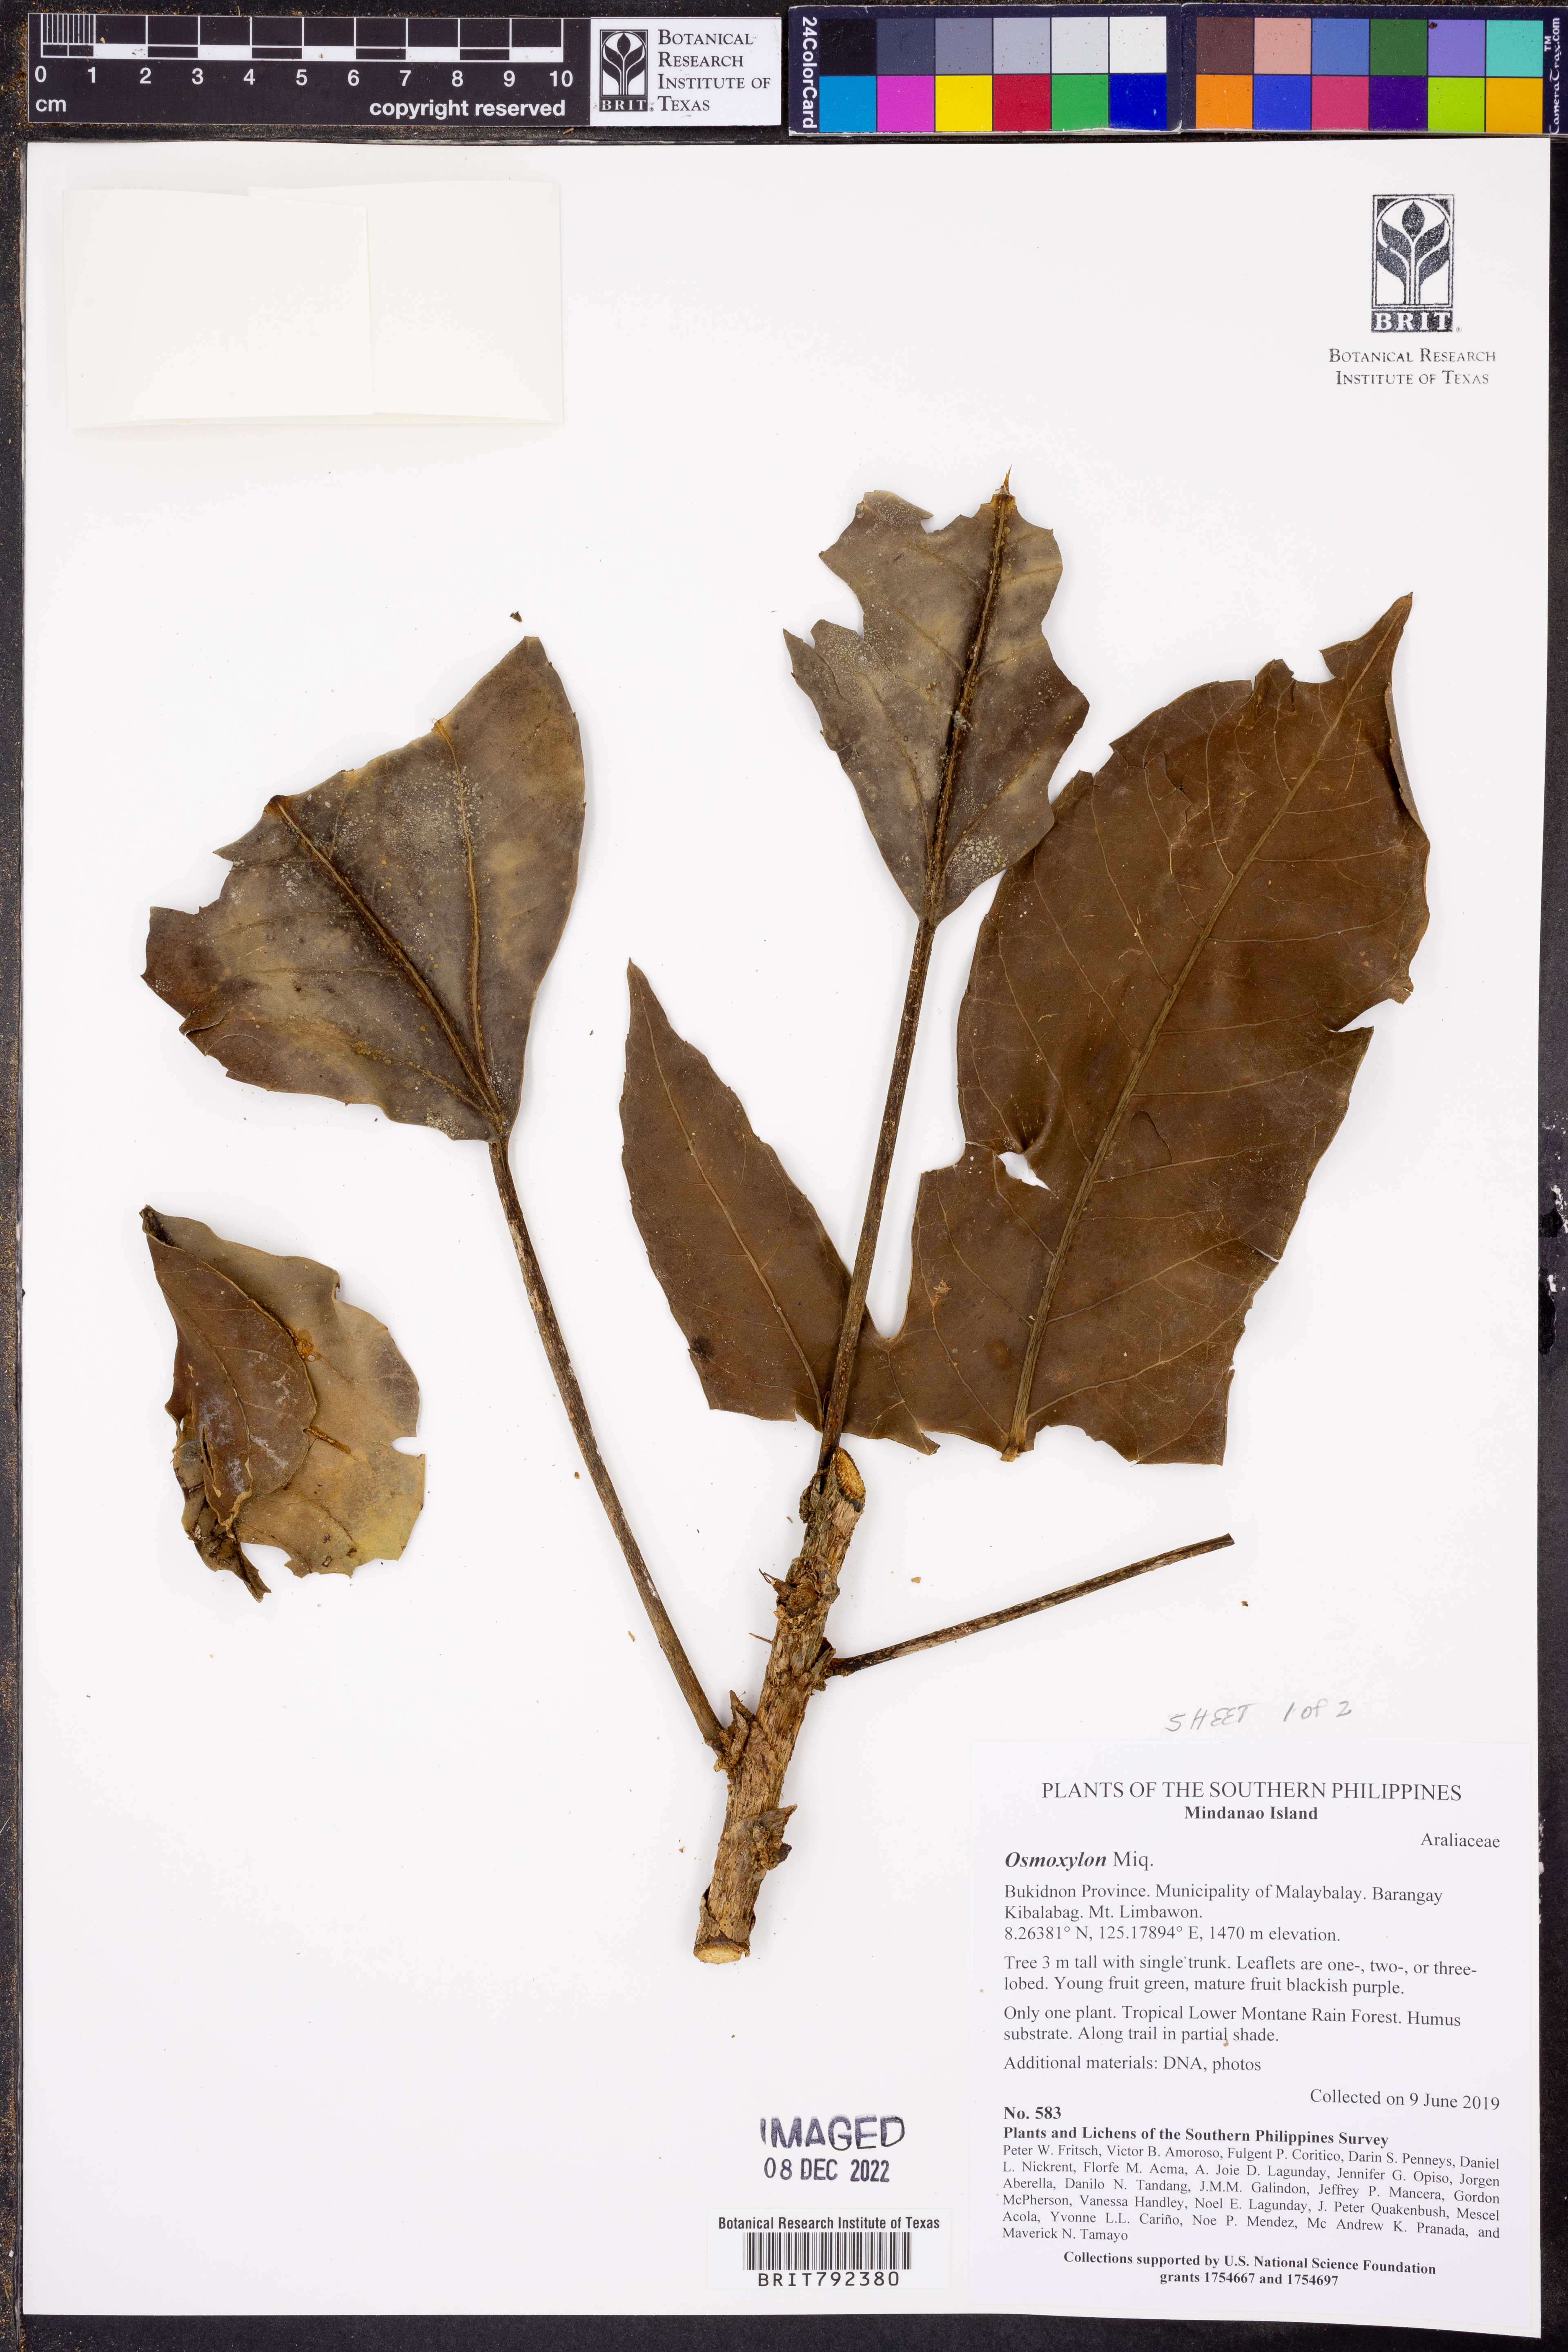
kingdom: Plantae
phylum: Tracheophyta
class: Magnoliopsida
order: Apiales
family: Araliaceae
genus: Osmoxylon
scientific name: Osmoxylon
